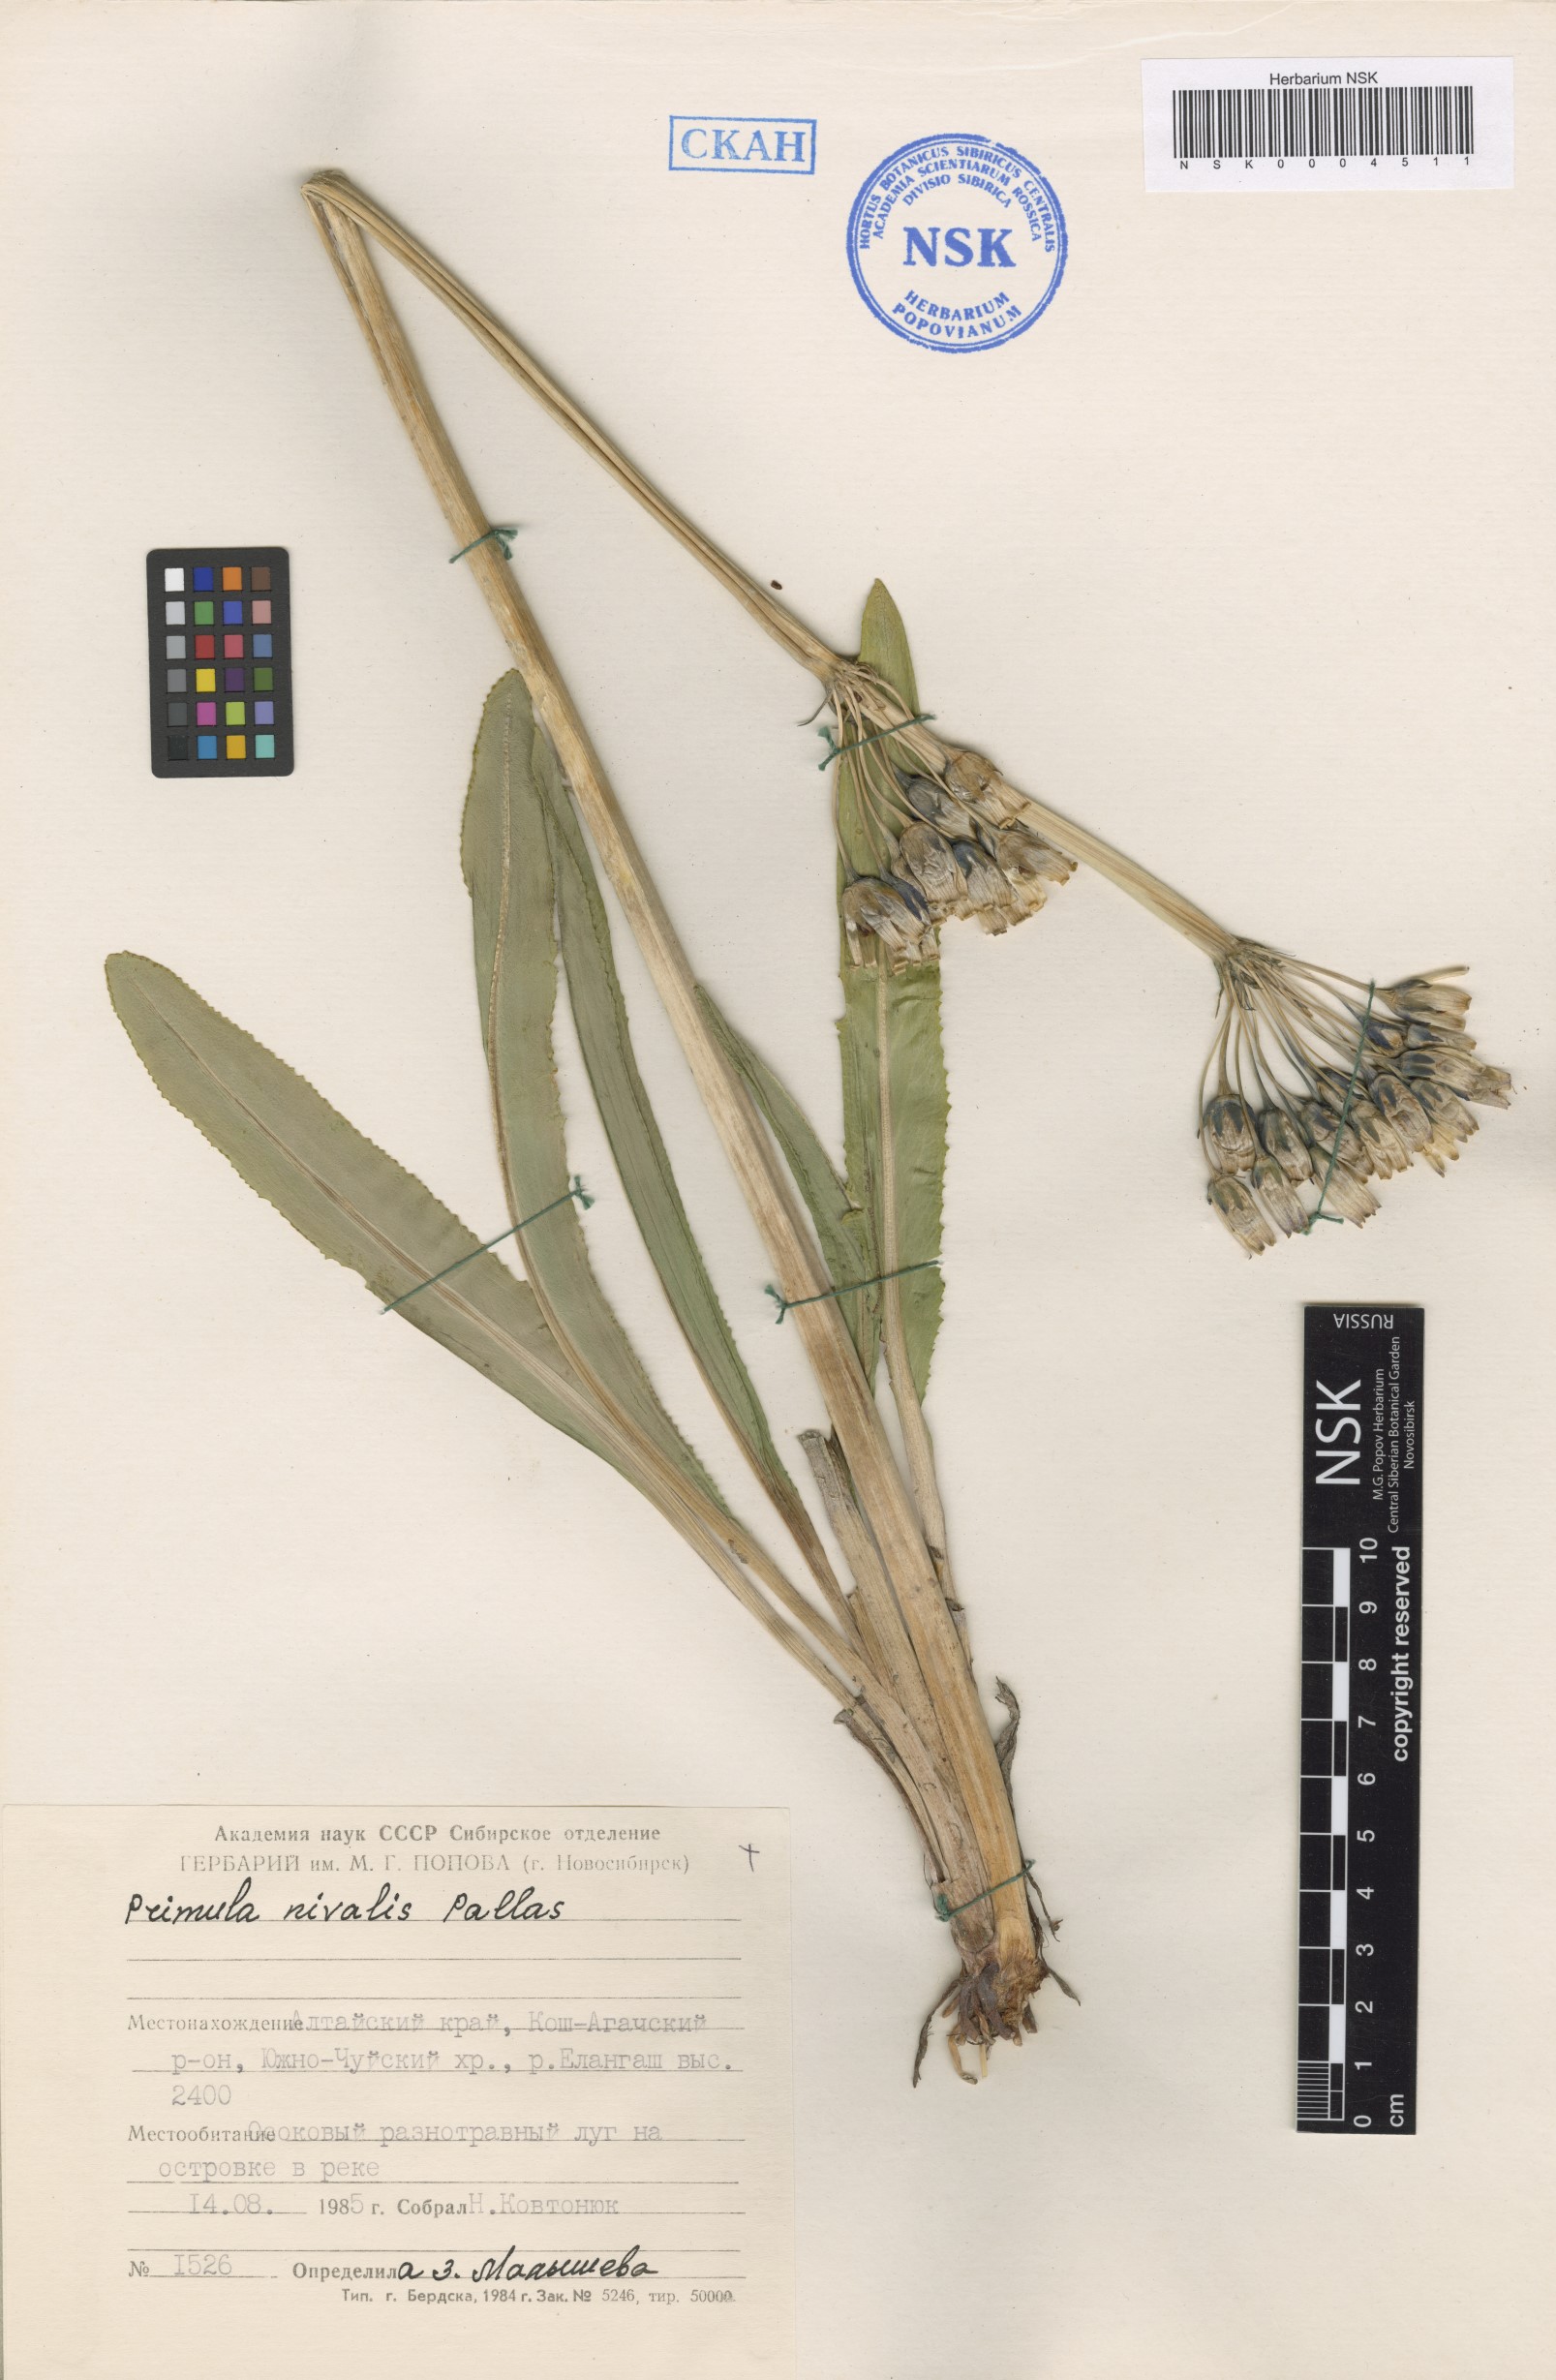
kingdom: Plantae
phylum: Tracheophyta
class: Magnoliopsida
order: Ericales
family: Primulaceae
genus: Primula
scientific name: Primula nivalis
